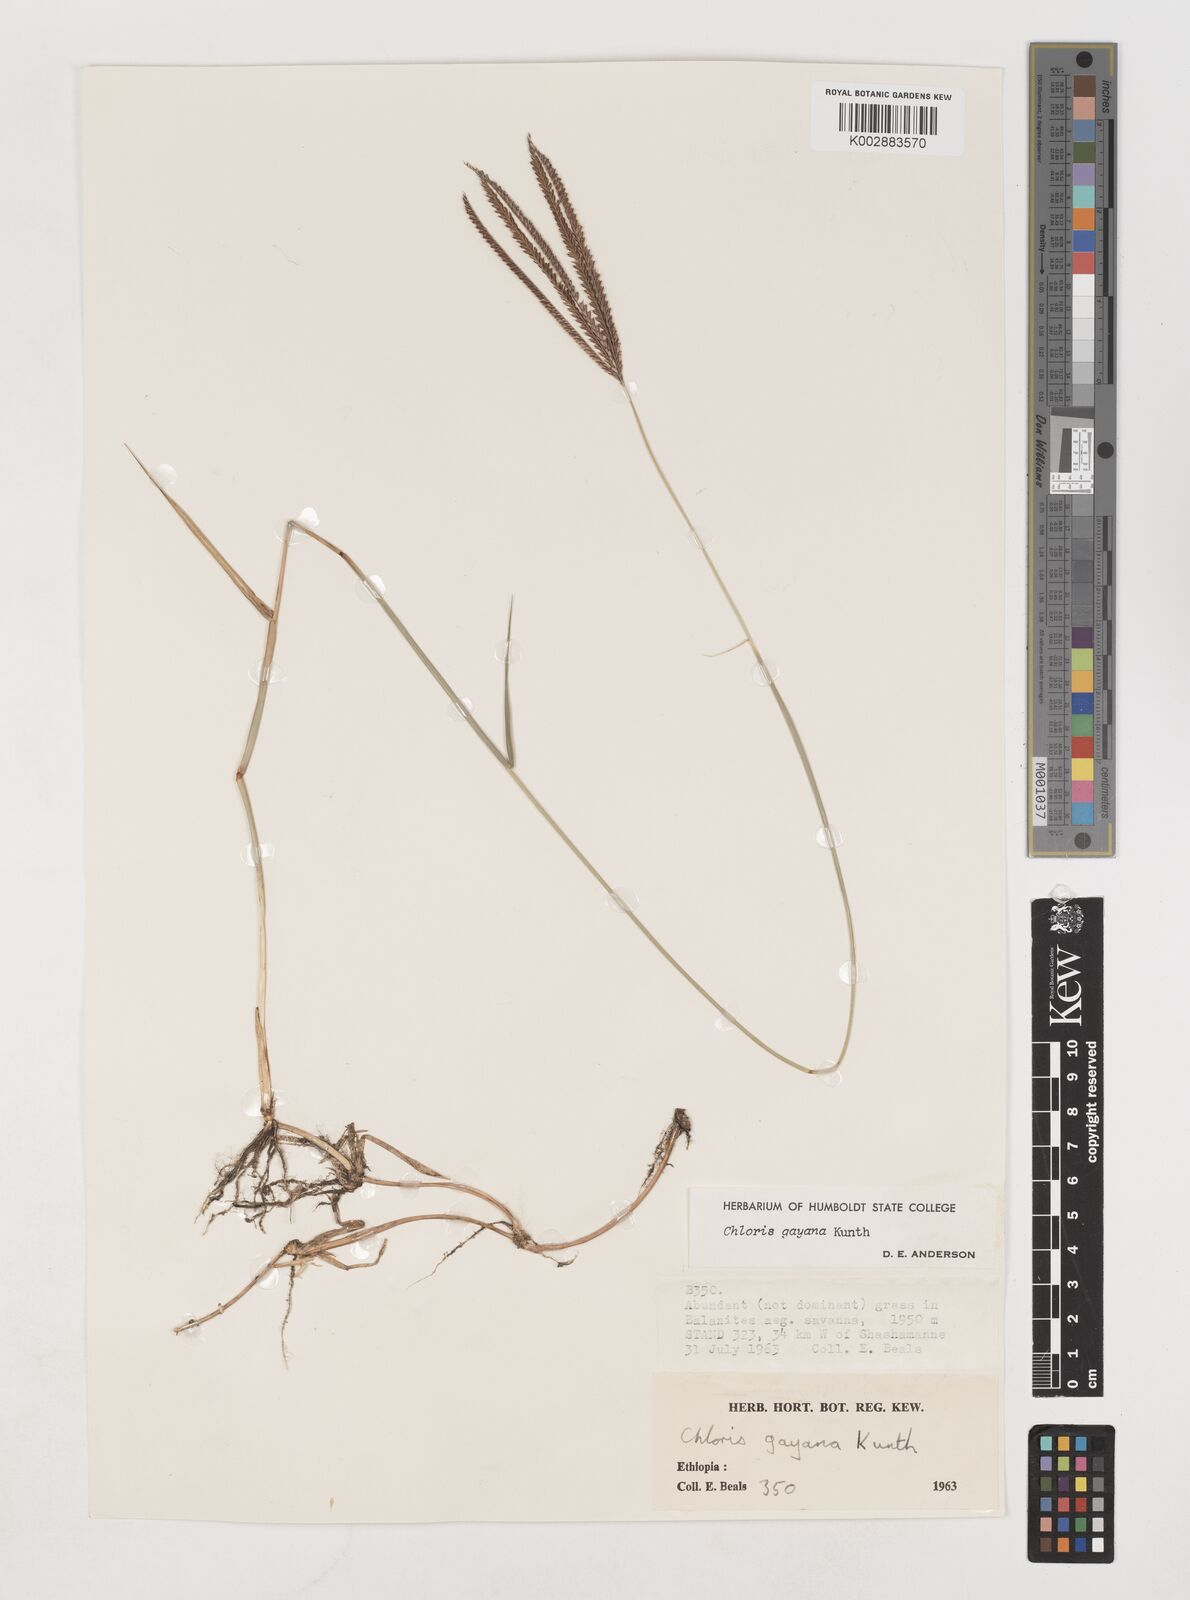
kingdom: Plantae
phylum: Tracheophyta
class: Liliopsida
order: Poales
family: Poaceae
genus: Chloris
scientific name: Chloris gayana
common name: Rhodes grass
